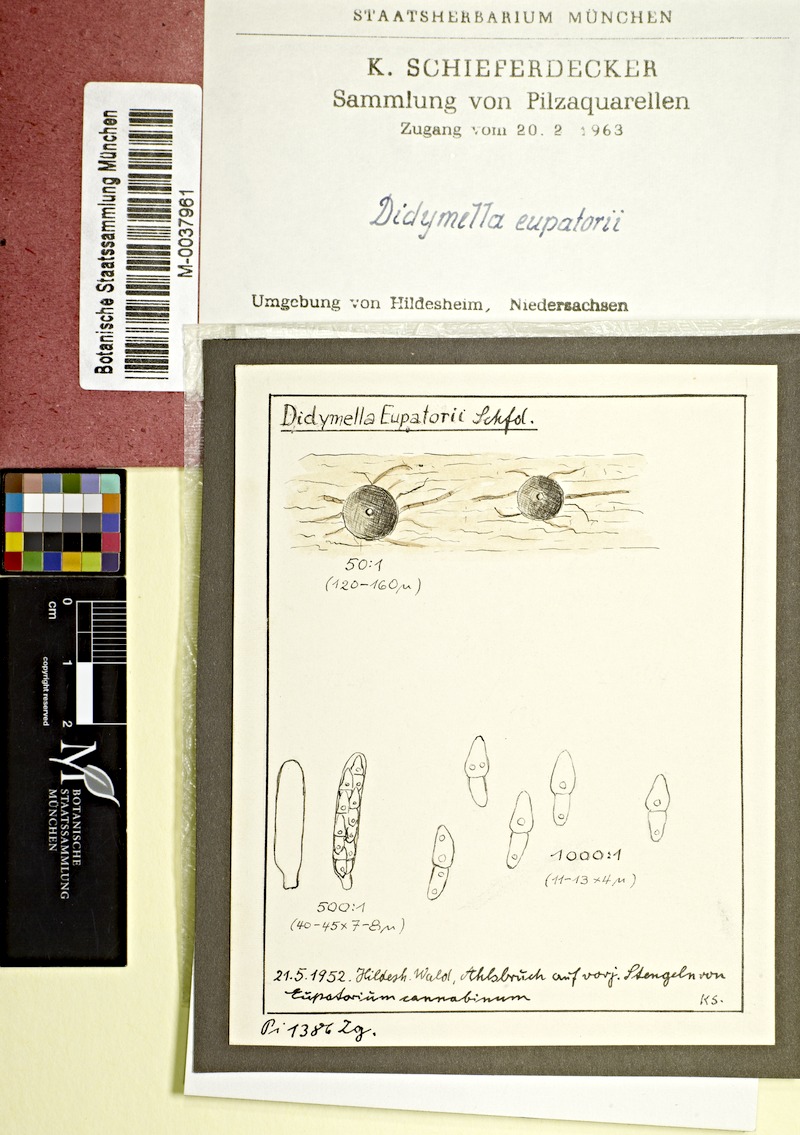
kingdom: Fungi
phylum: Ascomycota
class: Dothideomycetes
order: Pleosporales
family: Didymellaceae
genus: Didymella
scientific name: Didymella eupatorii
